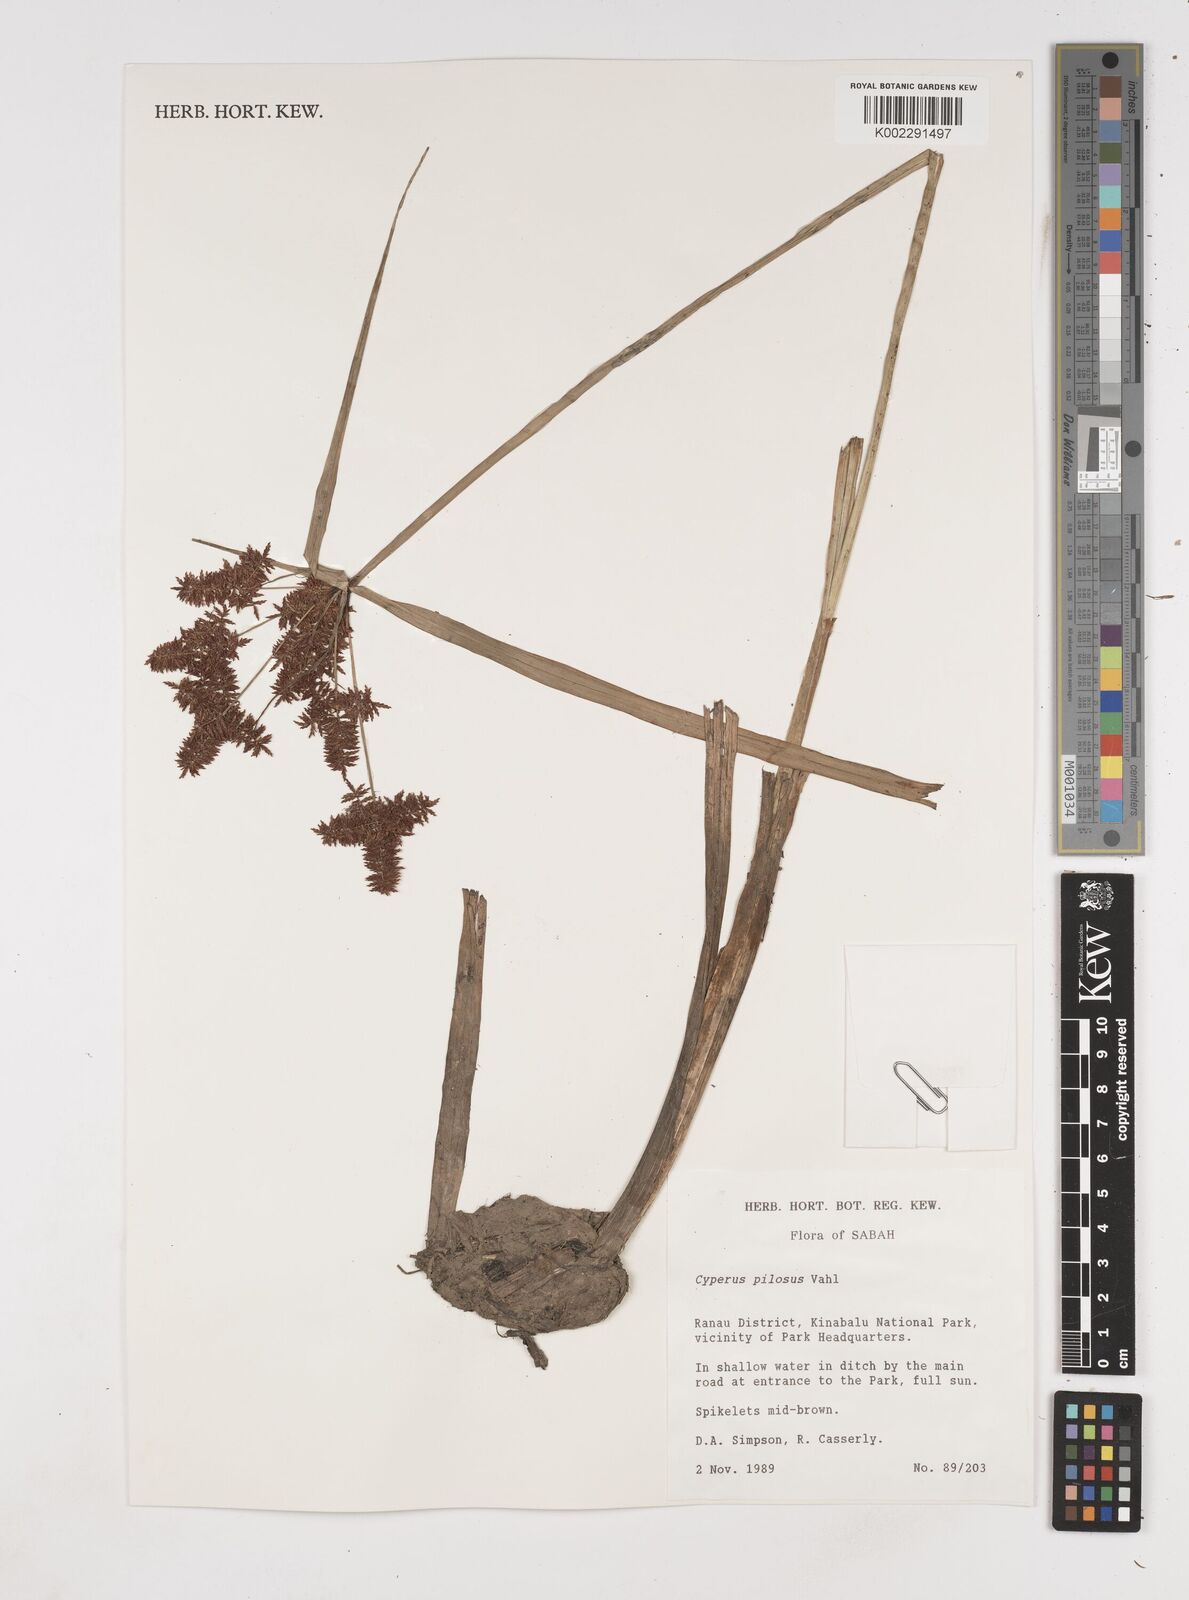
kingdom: Plantae
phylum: Tracheophyta
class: Liliopsida
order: Poales
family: Cyperaceae
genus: Cyperus
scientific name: Cyperus pilosus
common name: Fuzzy flatsedge
